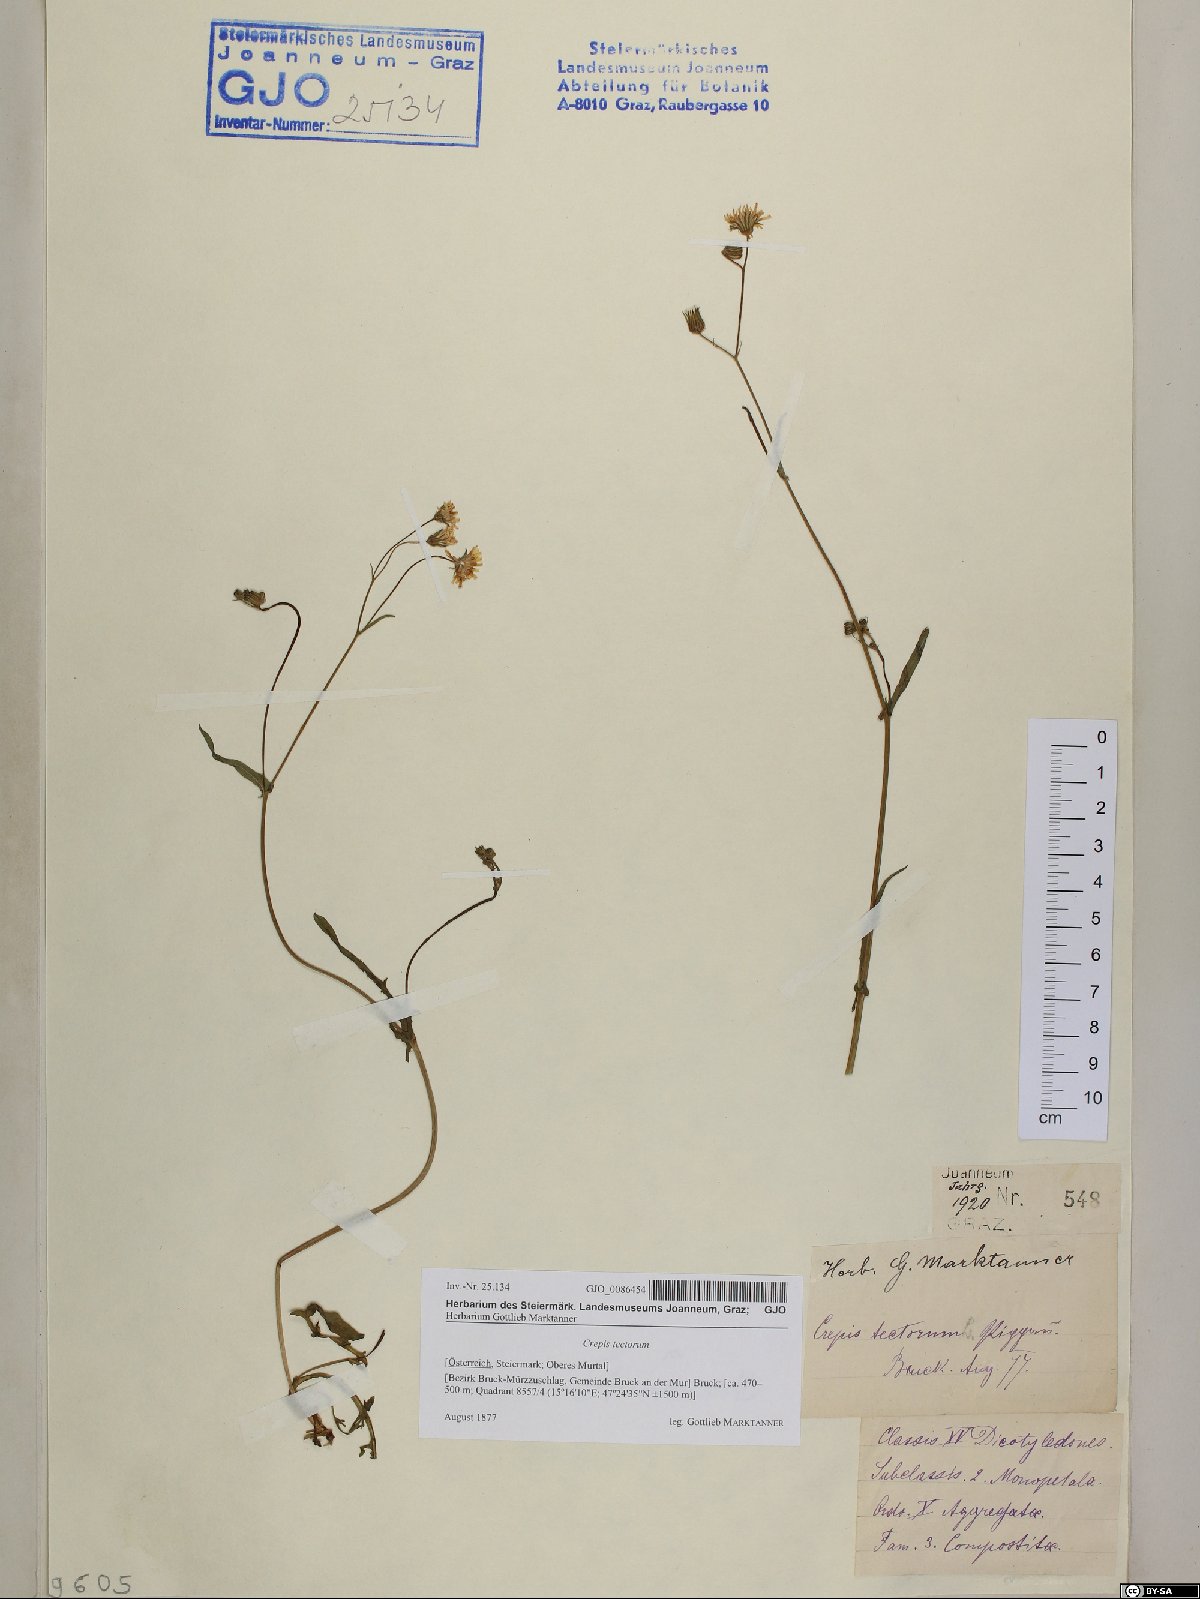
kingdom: Plantae
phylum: Tracheophyta
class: Magnoliopsida
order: Asterales
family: Asteraceae
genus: Crepis
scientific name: Crepis tectorum
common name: Narrow-leaved hawk's-beard
